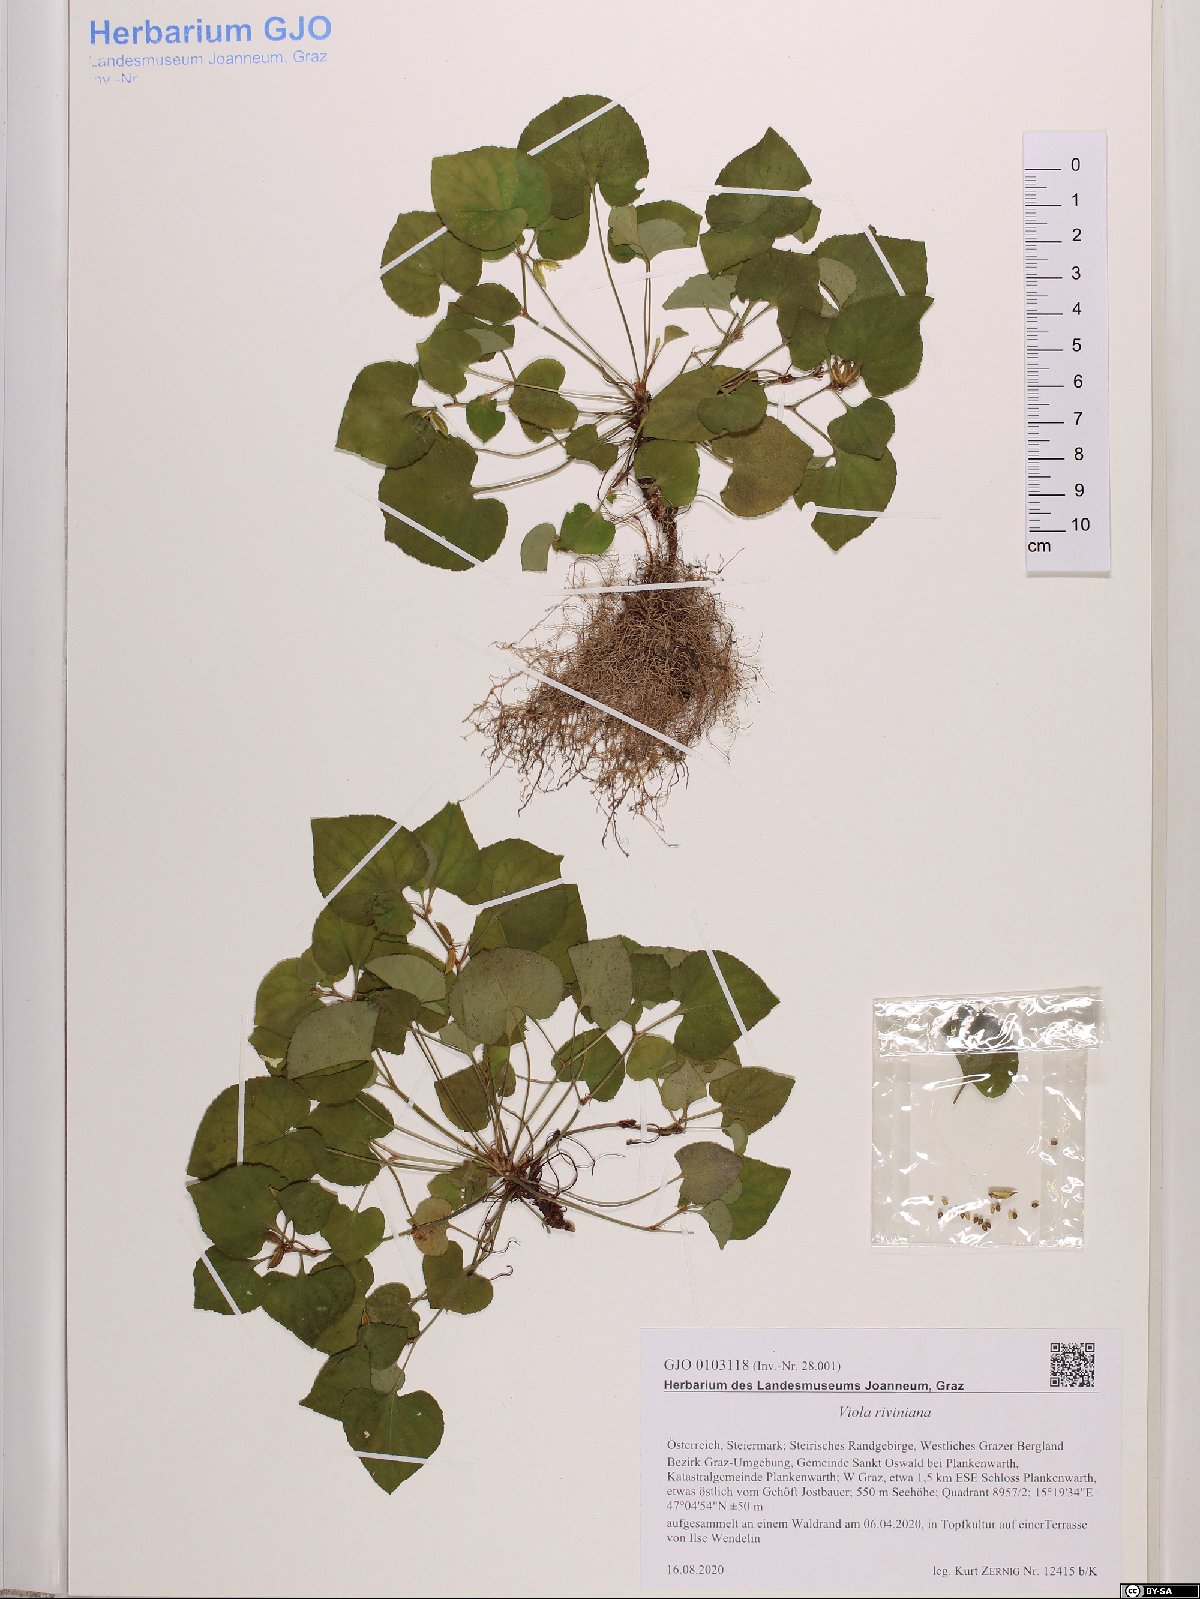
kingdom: Plantae
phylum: Tracheophyta
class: Magnoliopsida
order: Malpighiales
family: Violaceae
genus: Viola
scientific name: Viola riviniana
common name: Common dog-violet
